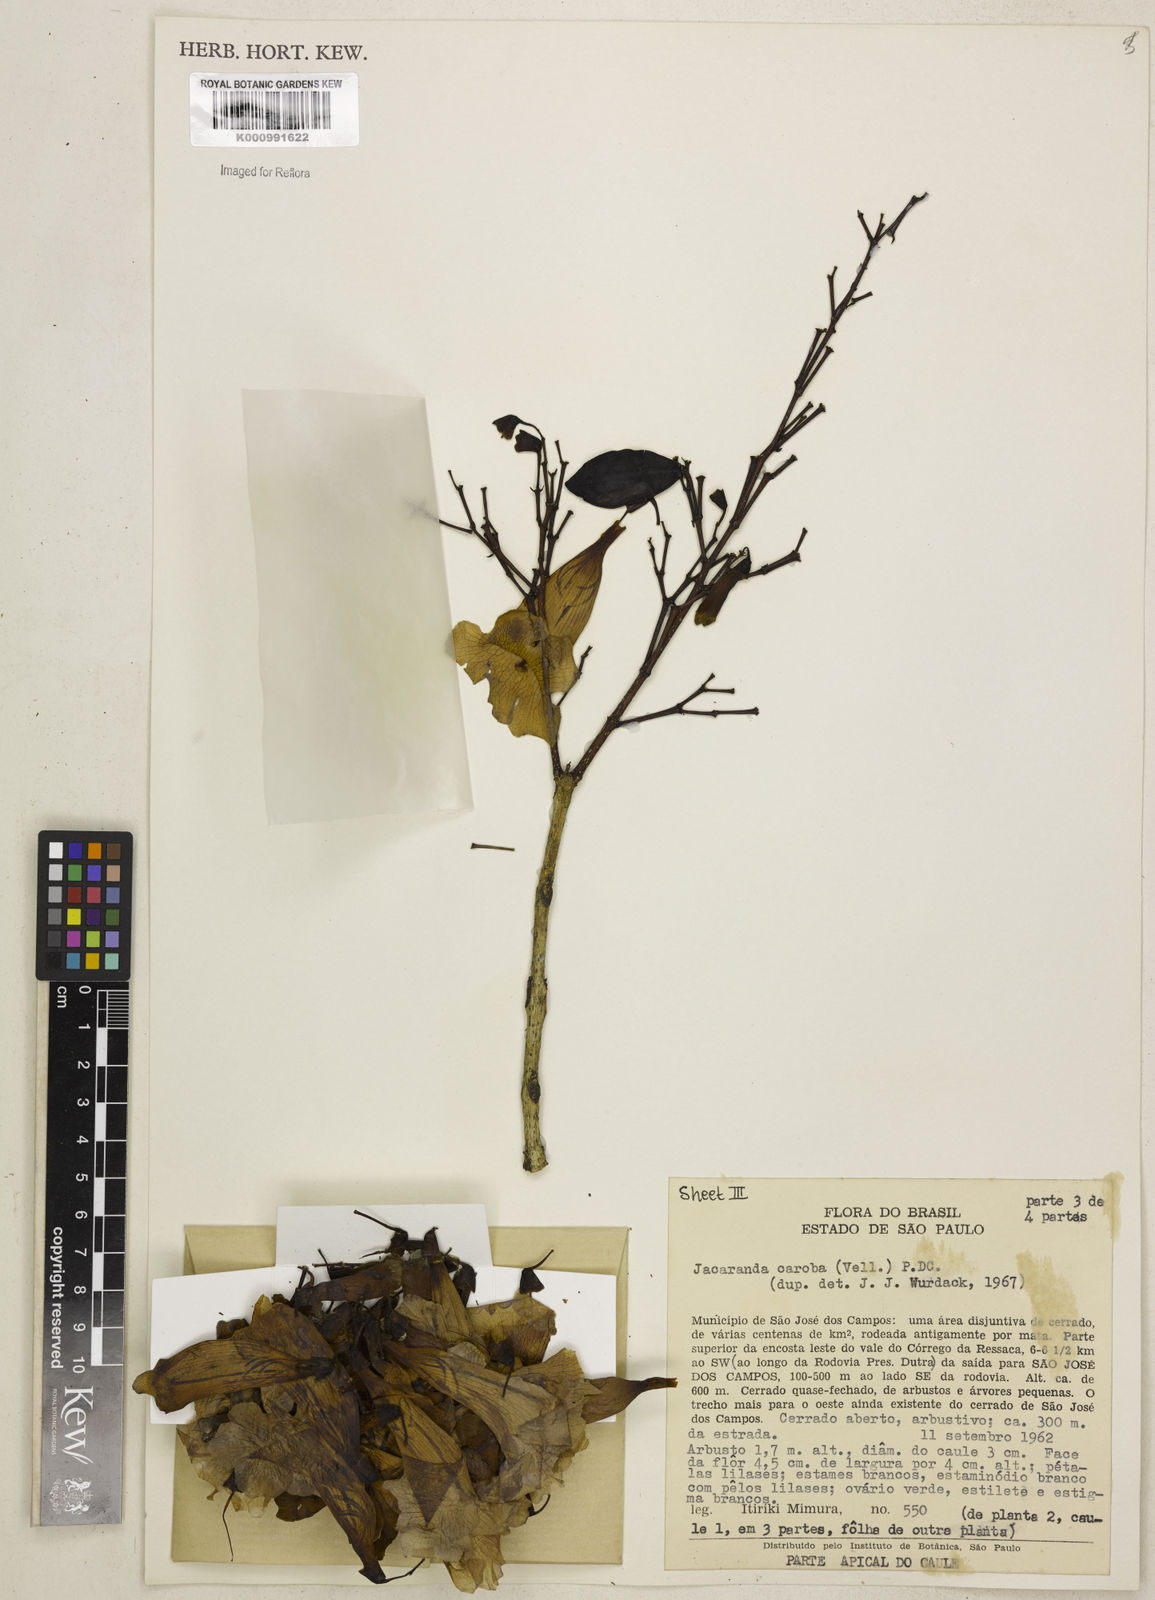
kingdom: Plantae
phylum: Tracheophyta
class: Magnoliopsida
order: Lamiales
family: Bignoniaceae
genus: Jacaranda
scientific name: Jacaranda caroba
